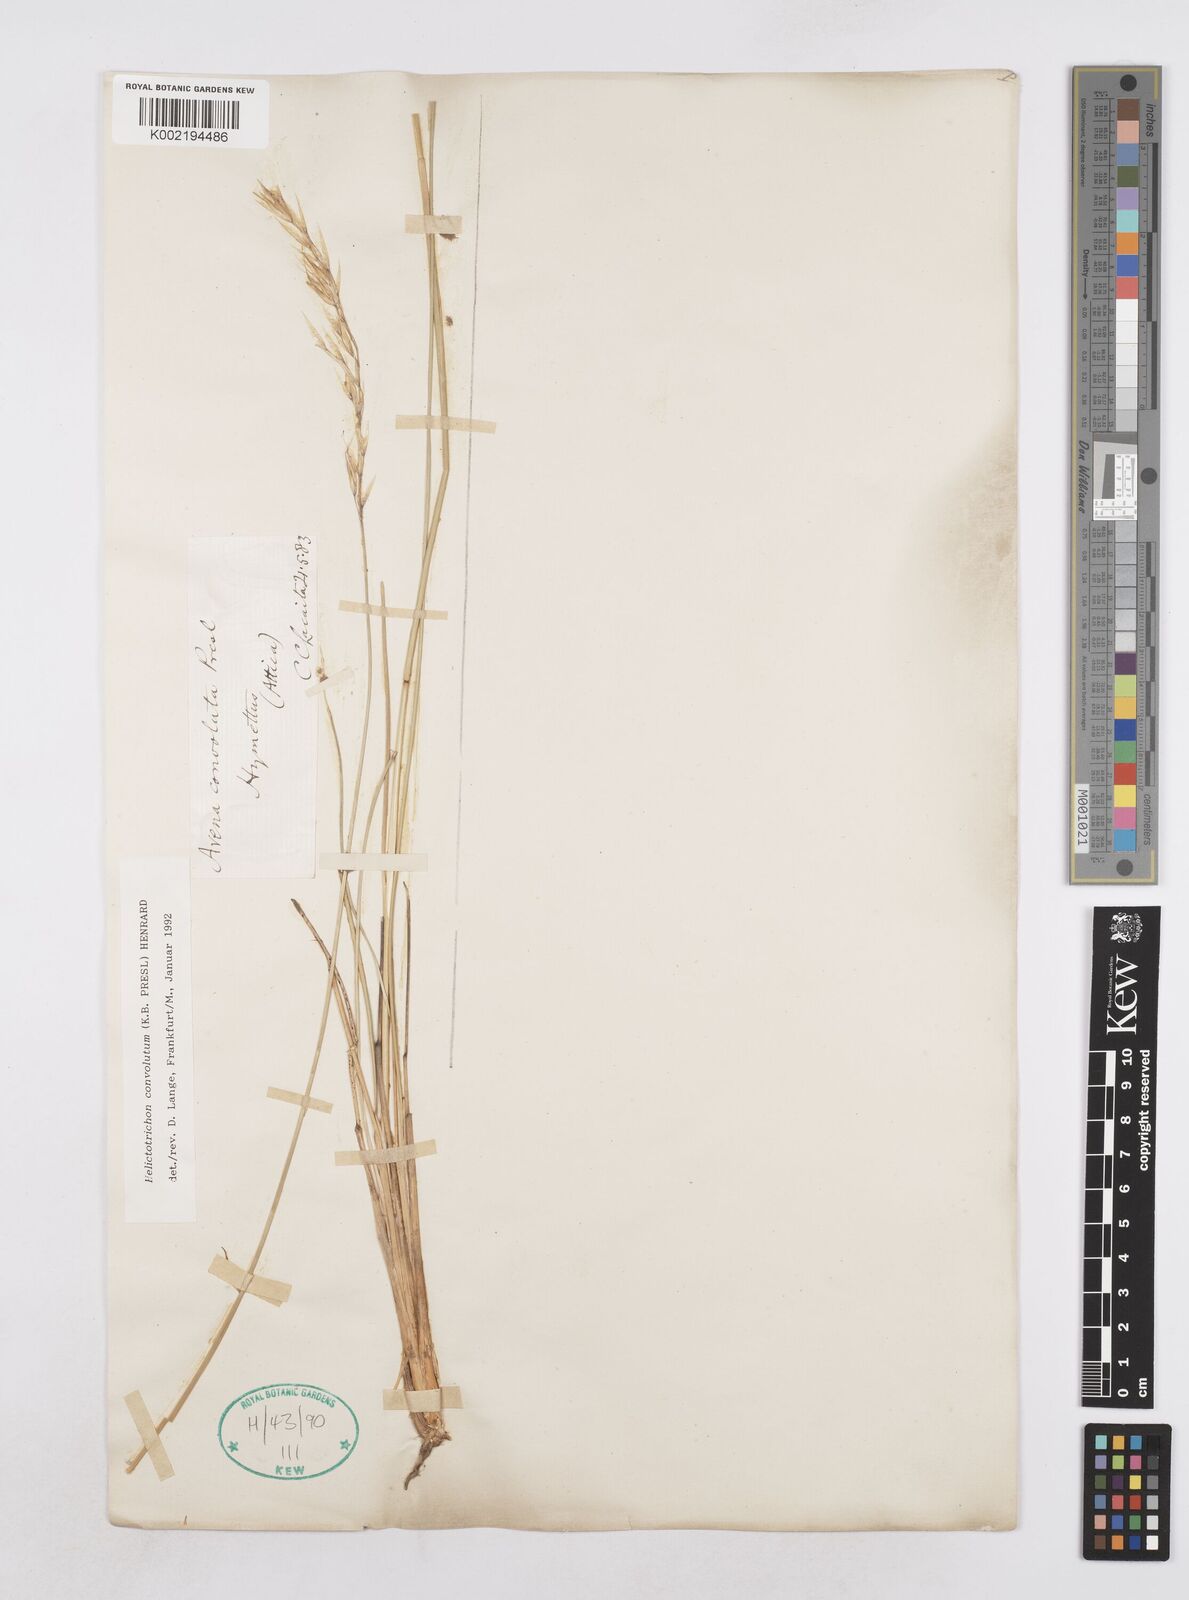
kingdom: Plantae
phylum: Tracheophyta
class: Liliopsida
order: Poales
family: Poaceae
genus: Helictotrichon
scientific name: Helictotrichon convolutum
